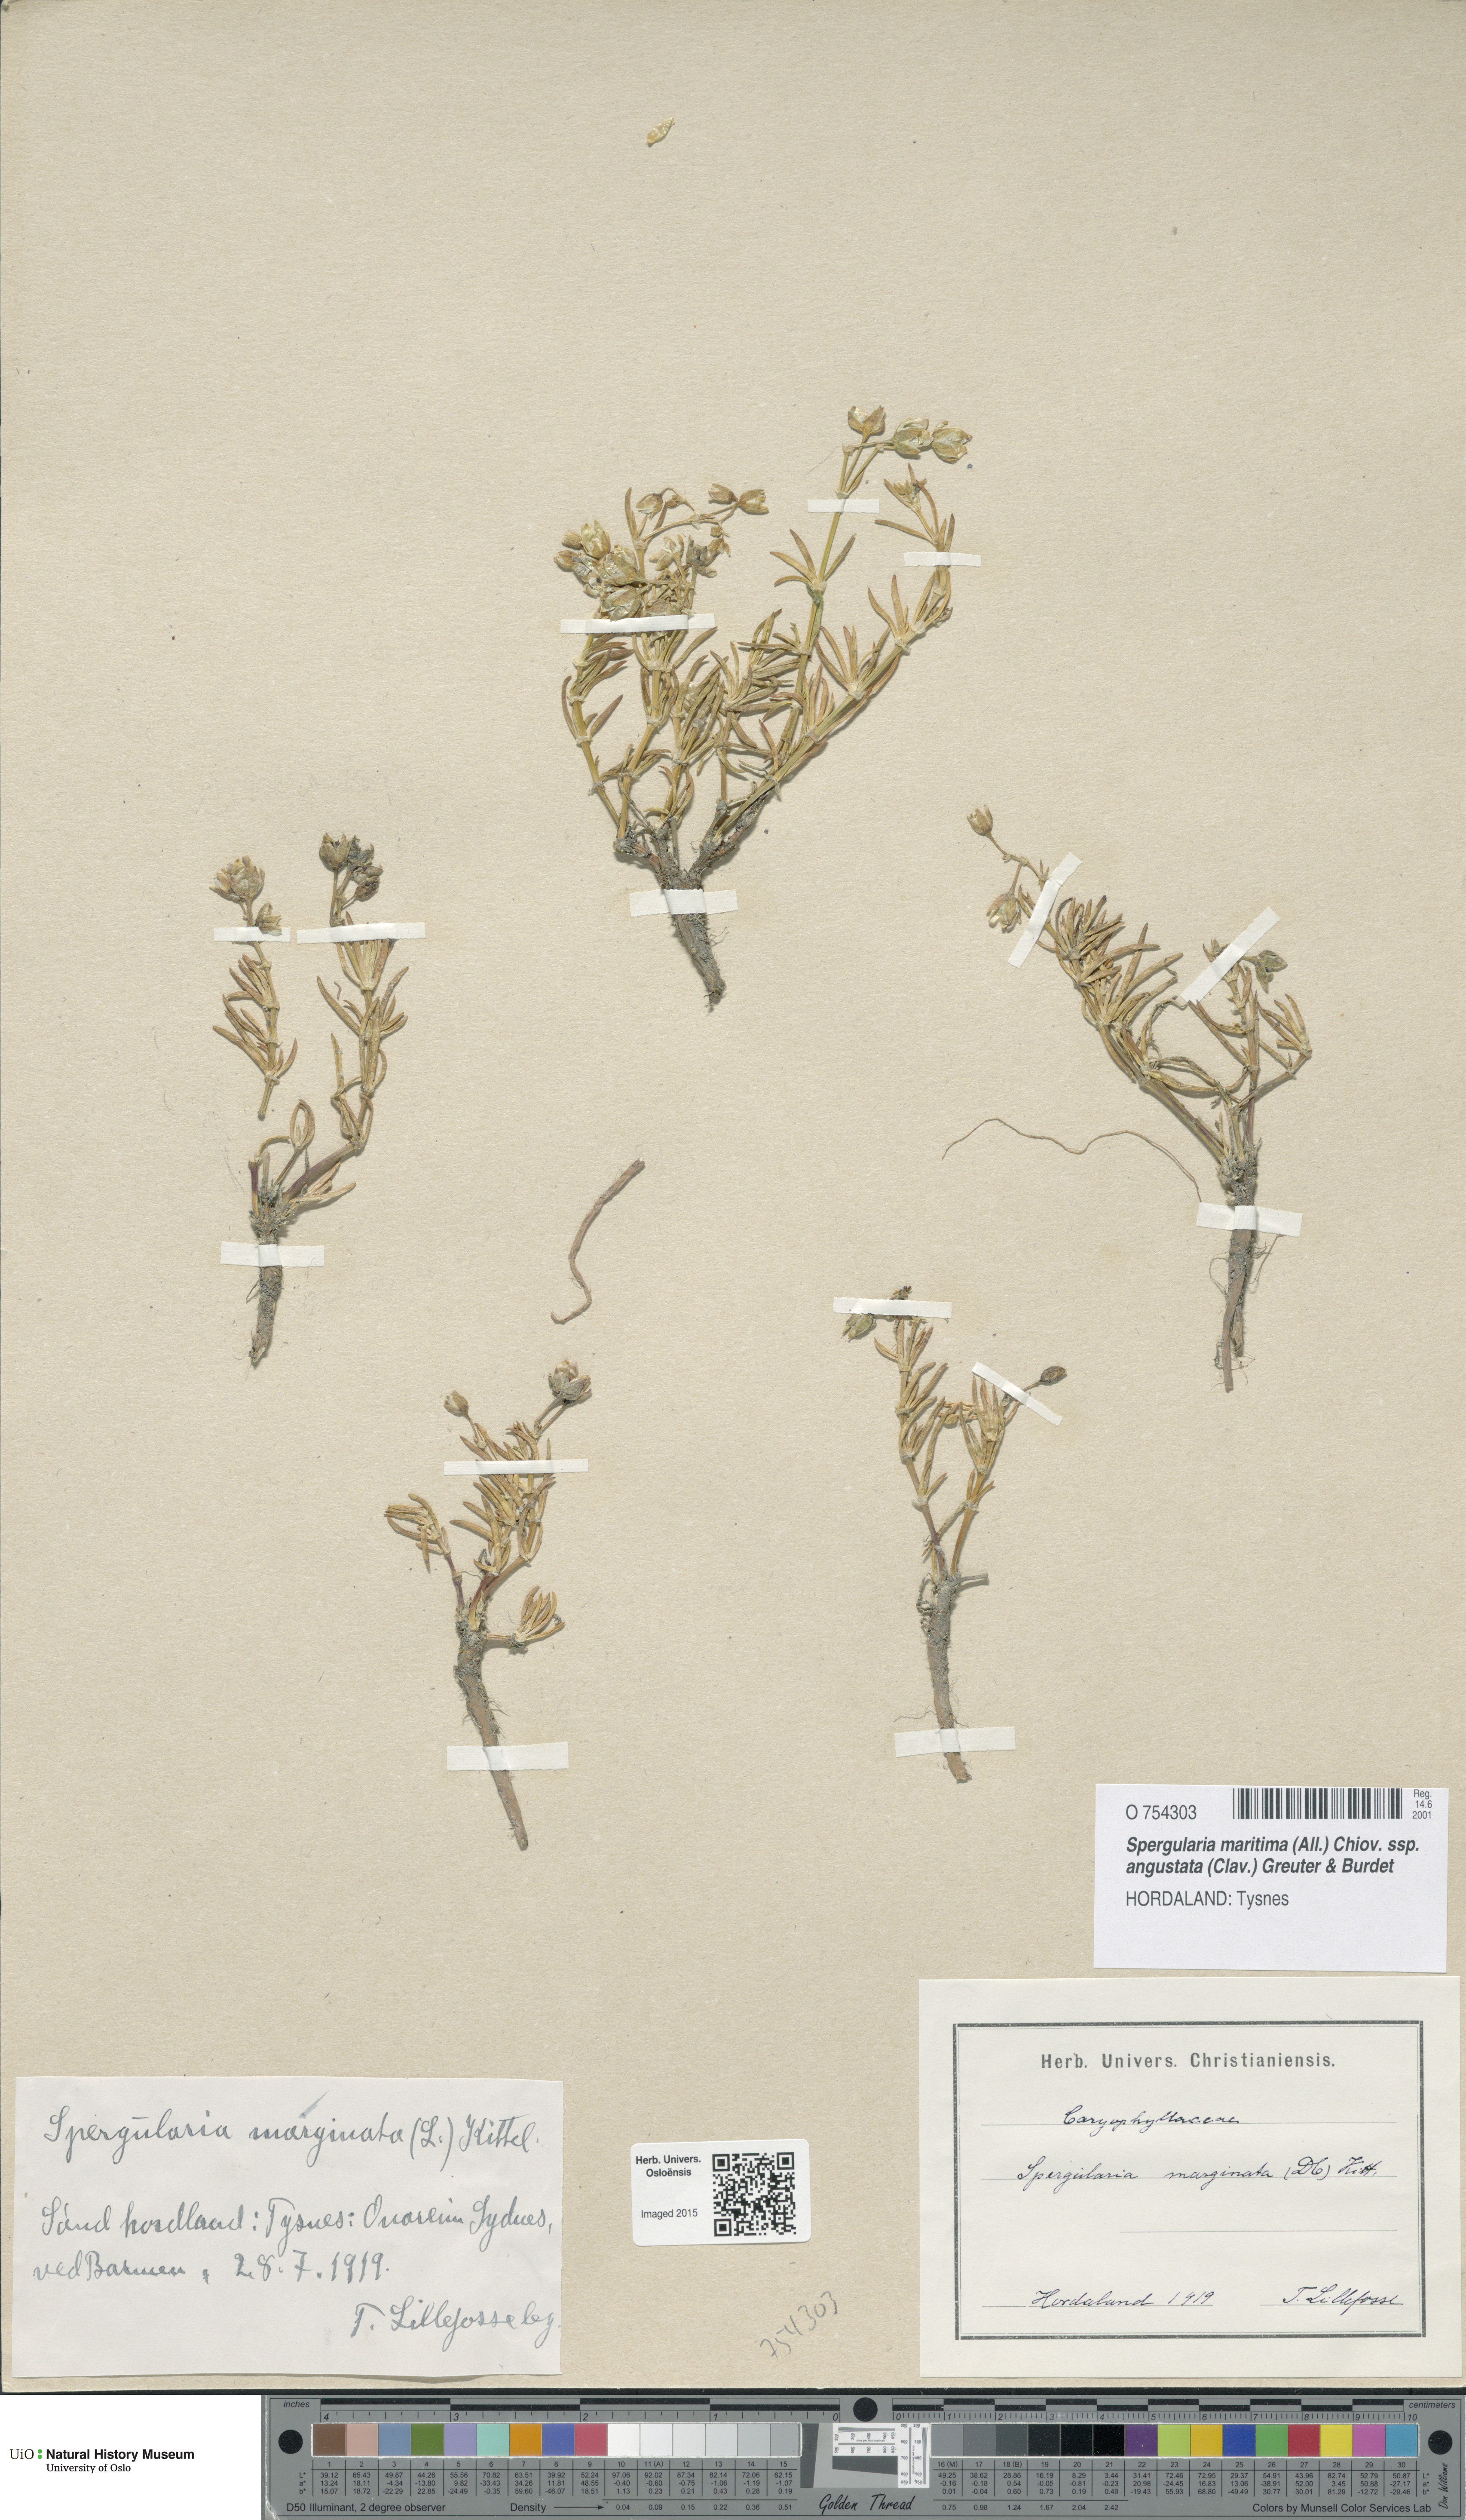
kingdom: Plantae
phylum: Tracheophyta
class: Magnoliopsida
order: Caryophyllales
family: Caryophyllaceae
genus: Spergularia
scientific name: Spergularia media
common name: Greater sea-spurrey
